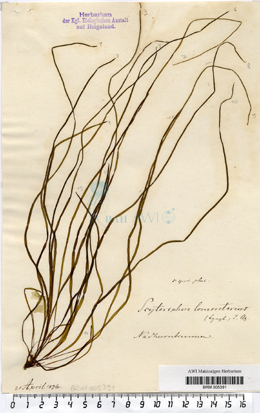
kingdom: Chromista
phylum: Ochrophyta
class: Phaeophyceae
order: Scytosiphonales
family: Scytosiphonaceae
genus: Scytosiphon
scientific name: Scytosiphon lomentaria
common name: Beanweed
